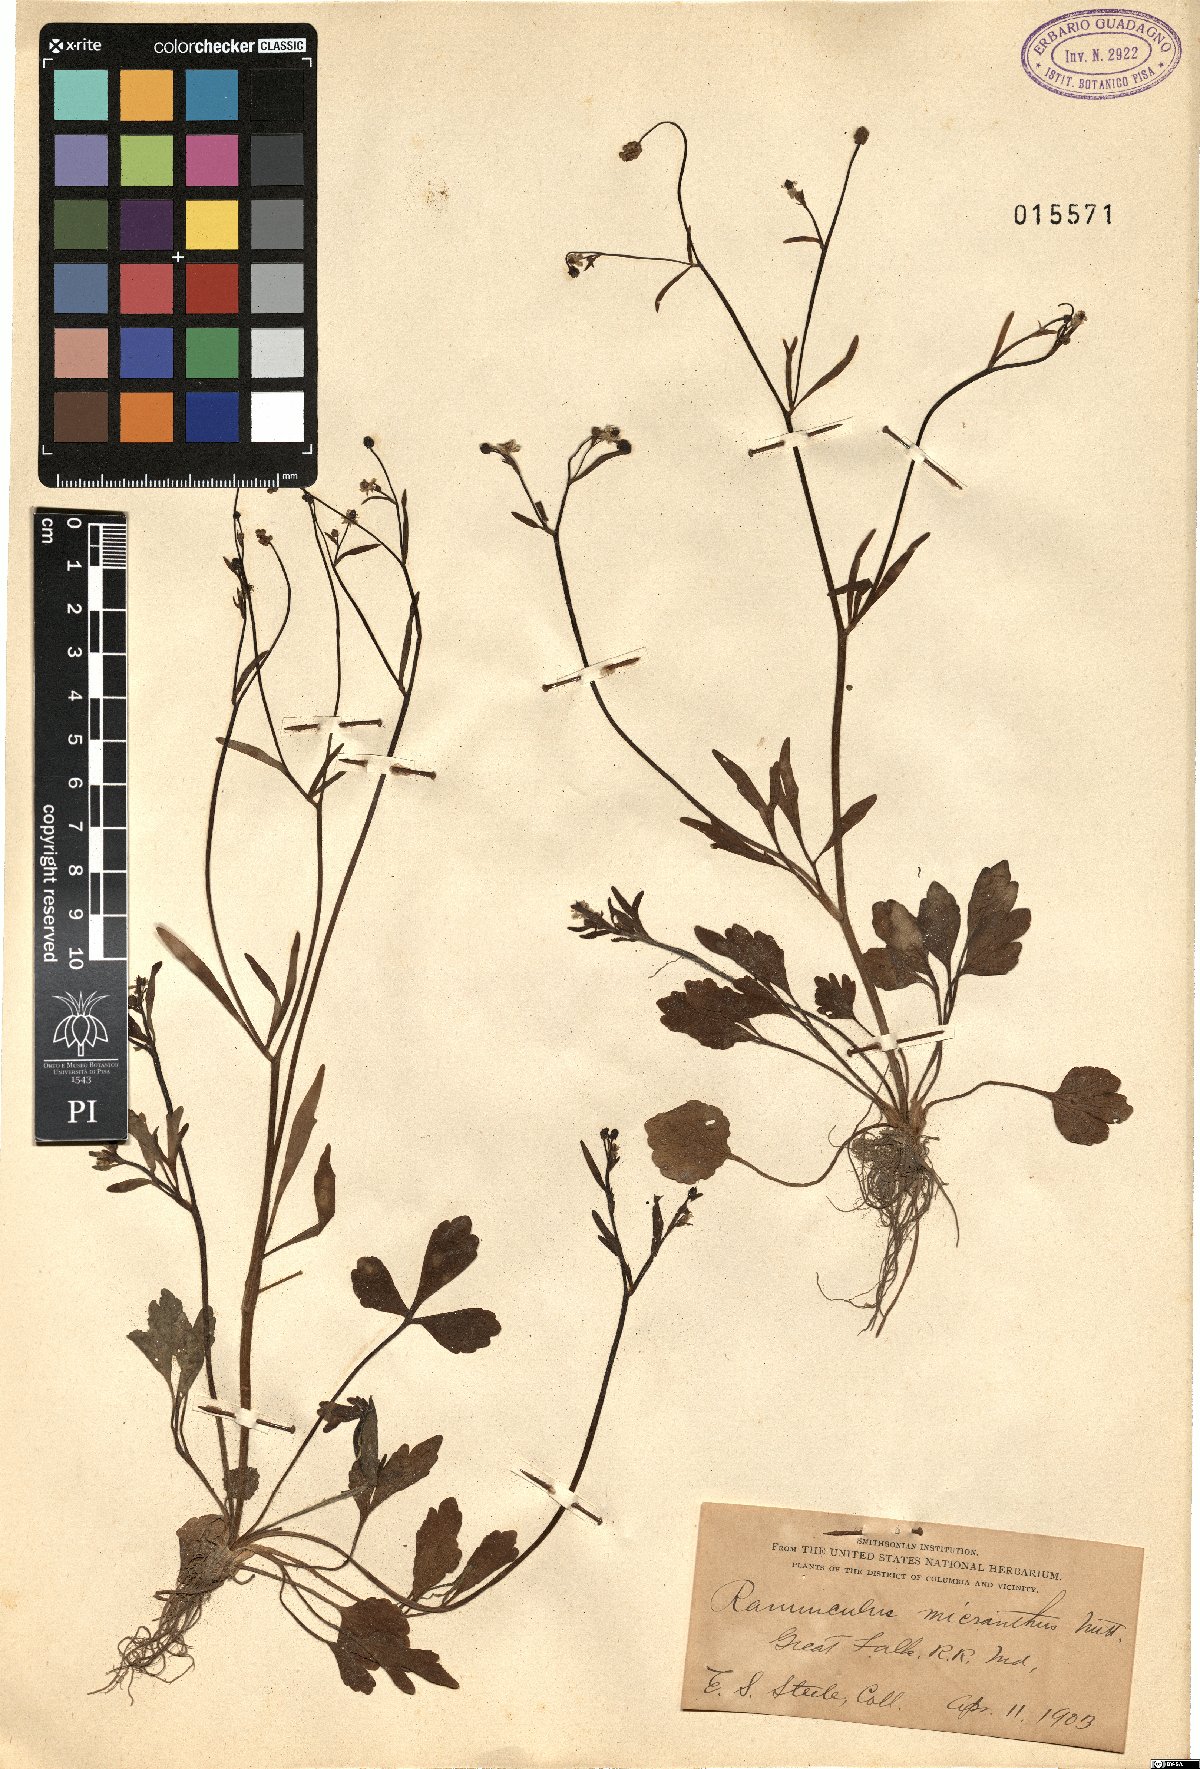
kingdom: Plantae
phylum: Tracheophyta
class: Magnoliopsida
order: Ranunculales
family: Ranunculaceae
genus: Ranunculus
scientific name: Ranunculus micranthus
